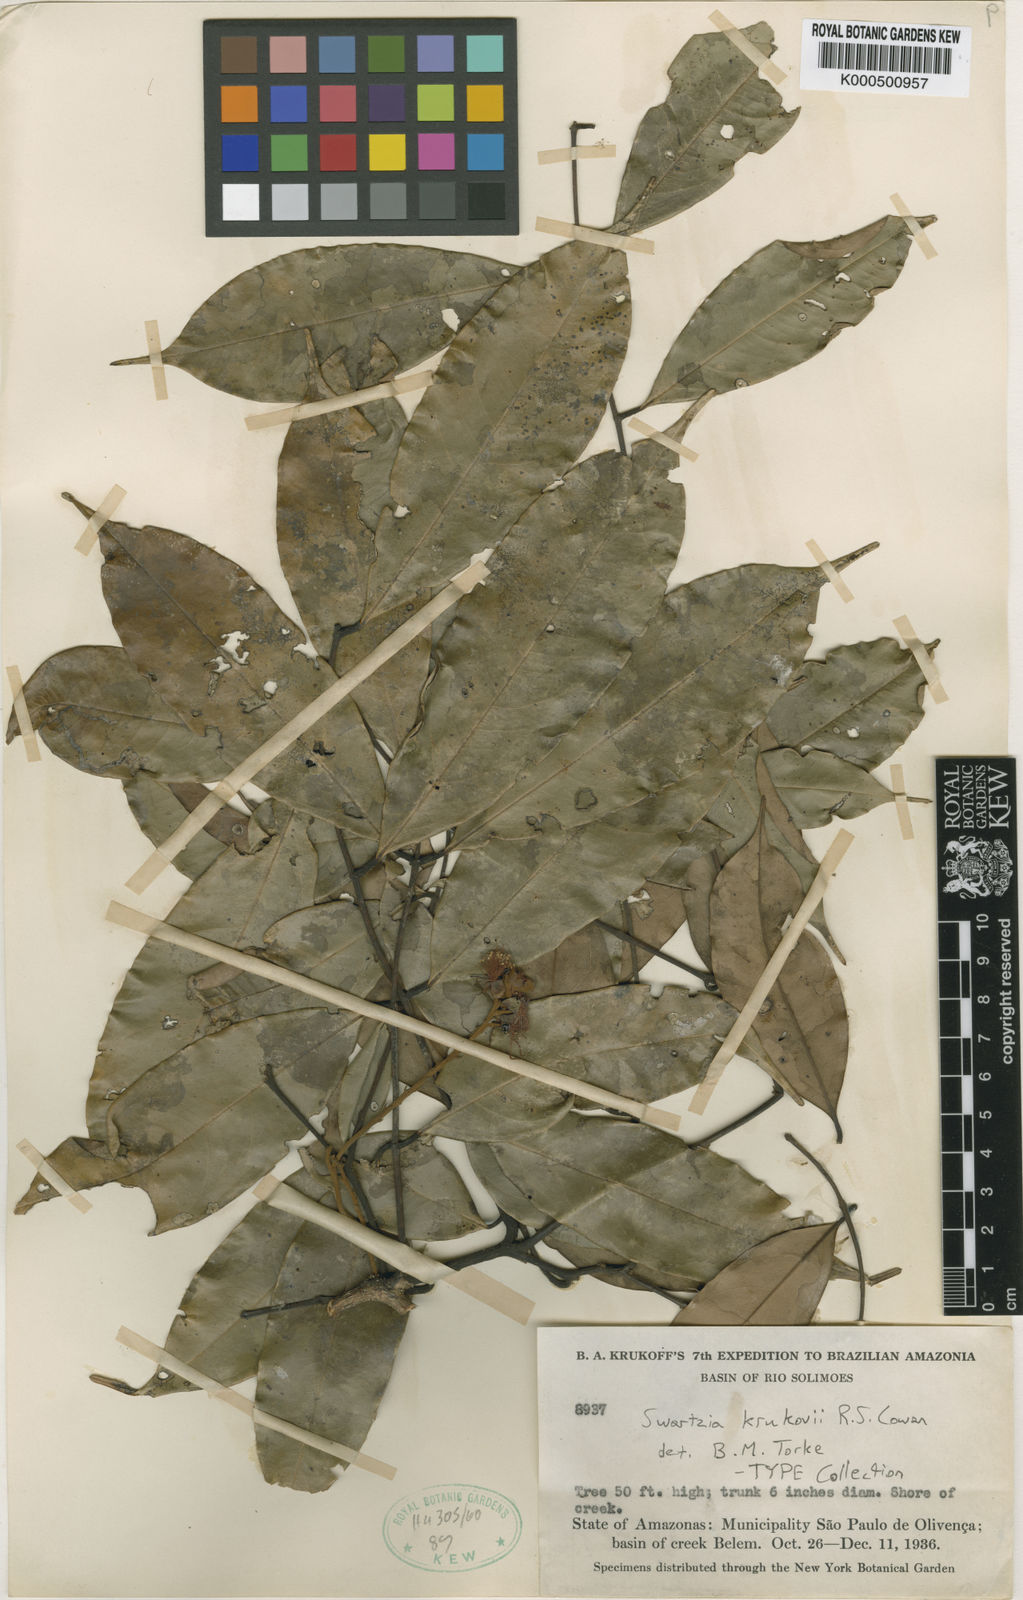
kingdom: Plantae
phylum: Tracheophyta
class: Magnoliopsida
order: Fabales
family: Fabaceae
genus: Swartzia
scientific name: Swartzia krukovii
